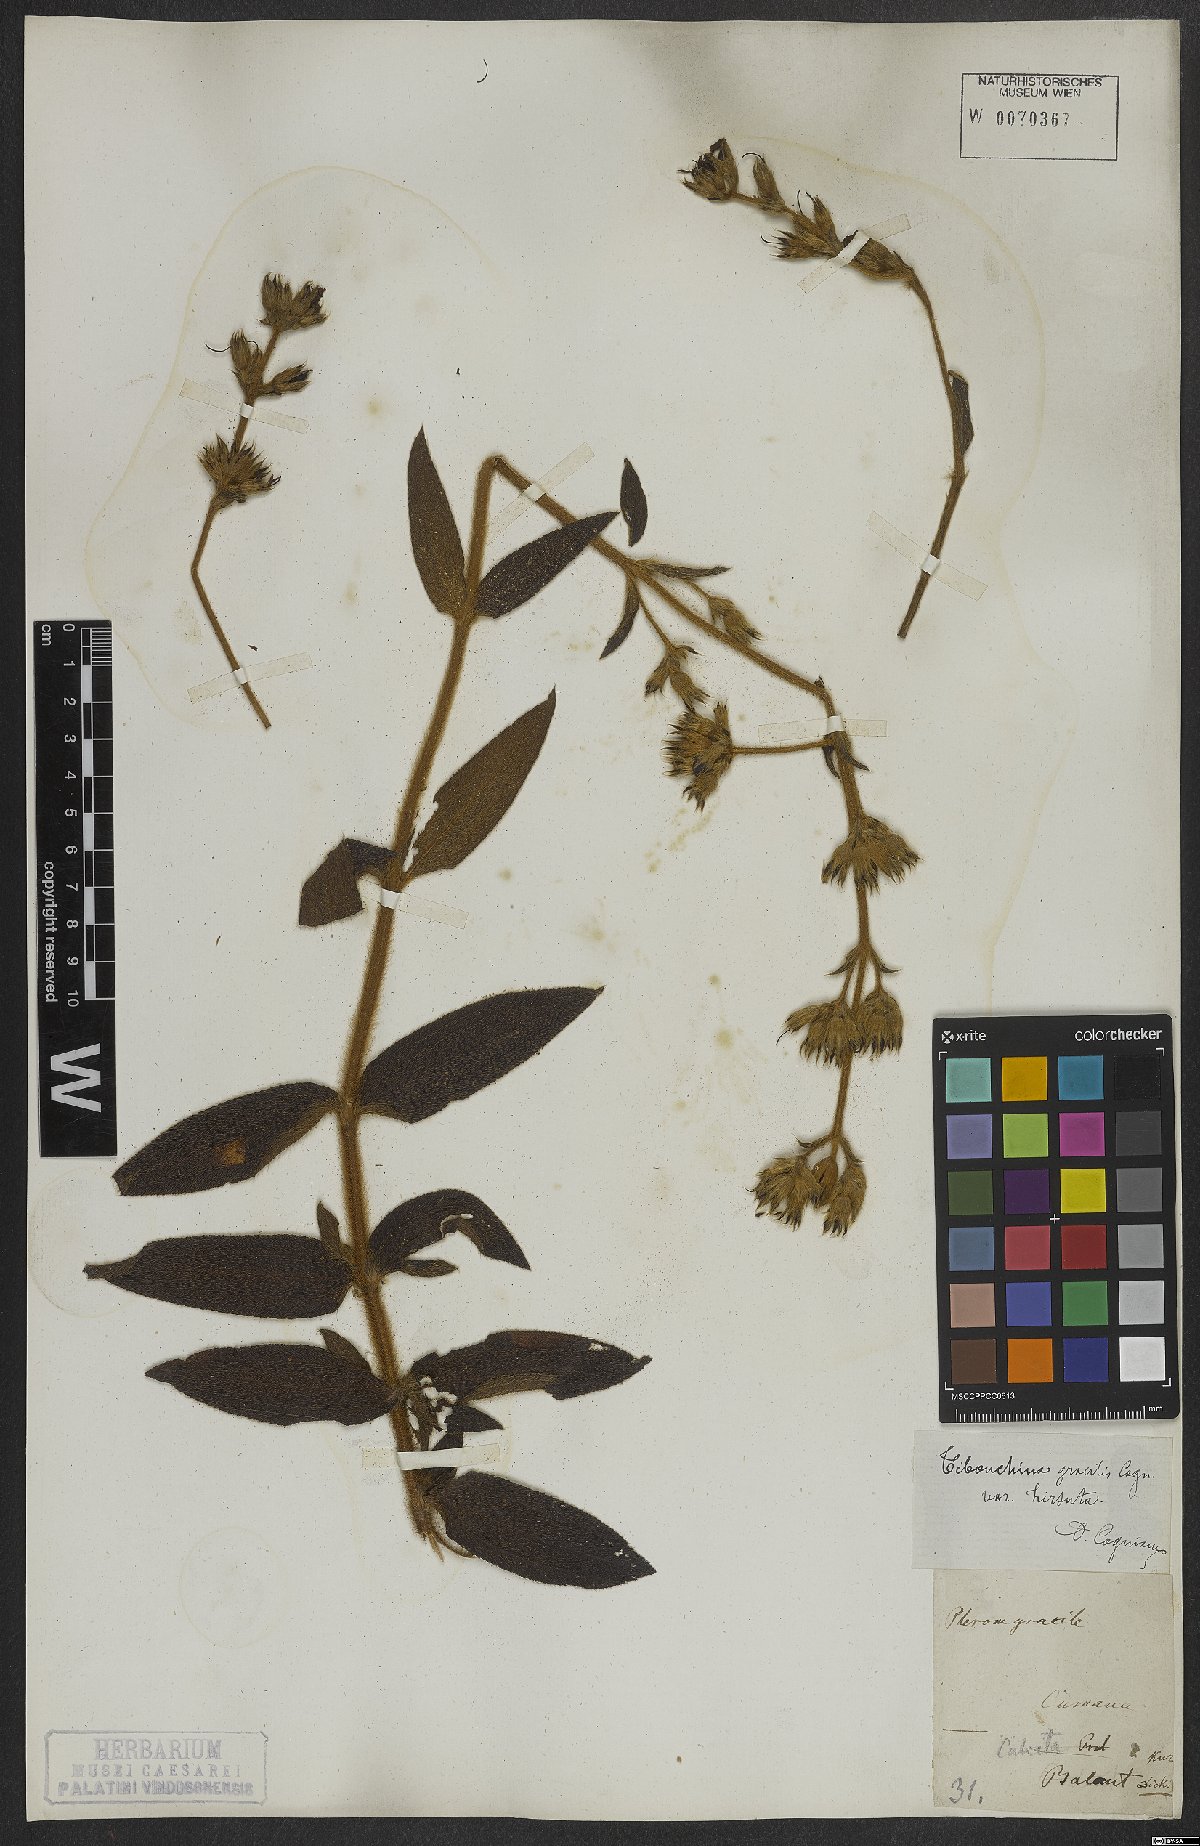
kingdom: Plantae
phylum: Tracheophyta
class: Magnoliopsida
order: Myrtales
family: Melastomataceae
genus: Chaetogastra
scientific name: Chaetogastra gracilis
